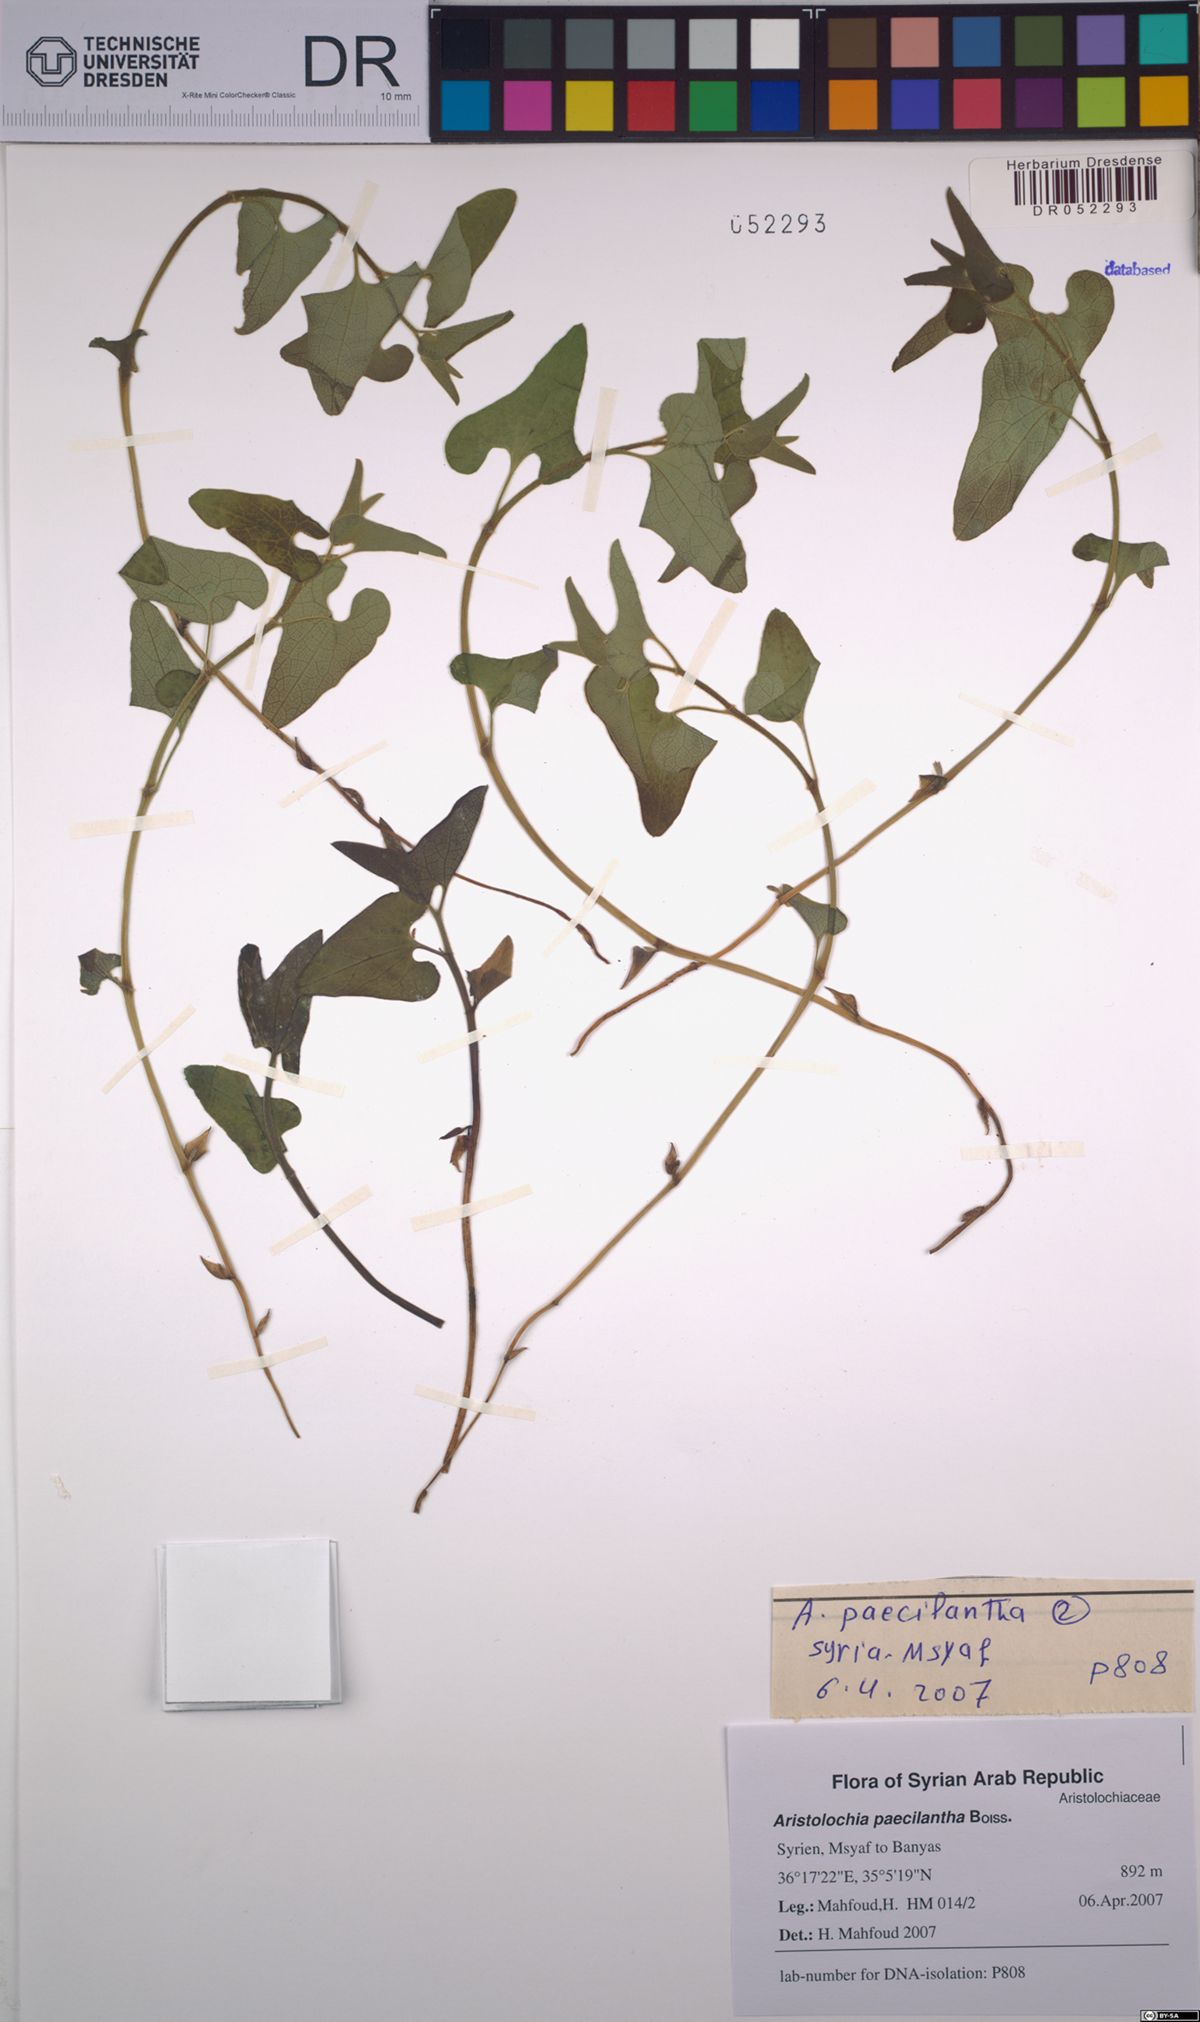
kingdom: Plantae
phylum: Tracheophyta
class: Magnoliopsida
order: Piperales
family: Aristolochiaceae
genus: Aristolochia
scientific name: Aristolochia paecilantha
